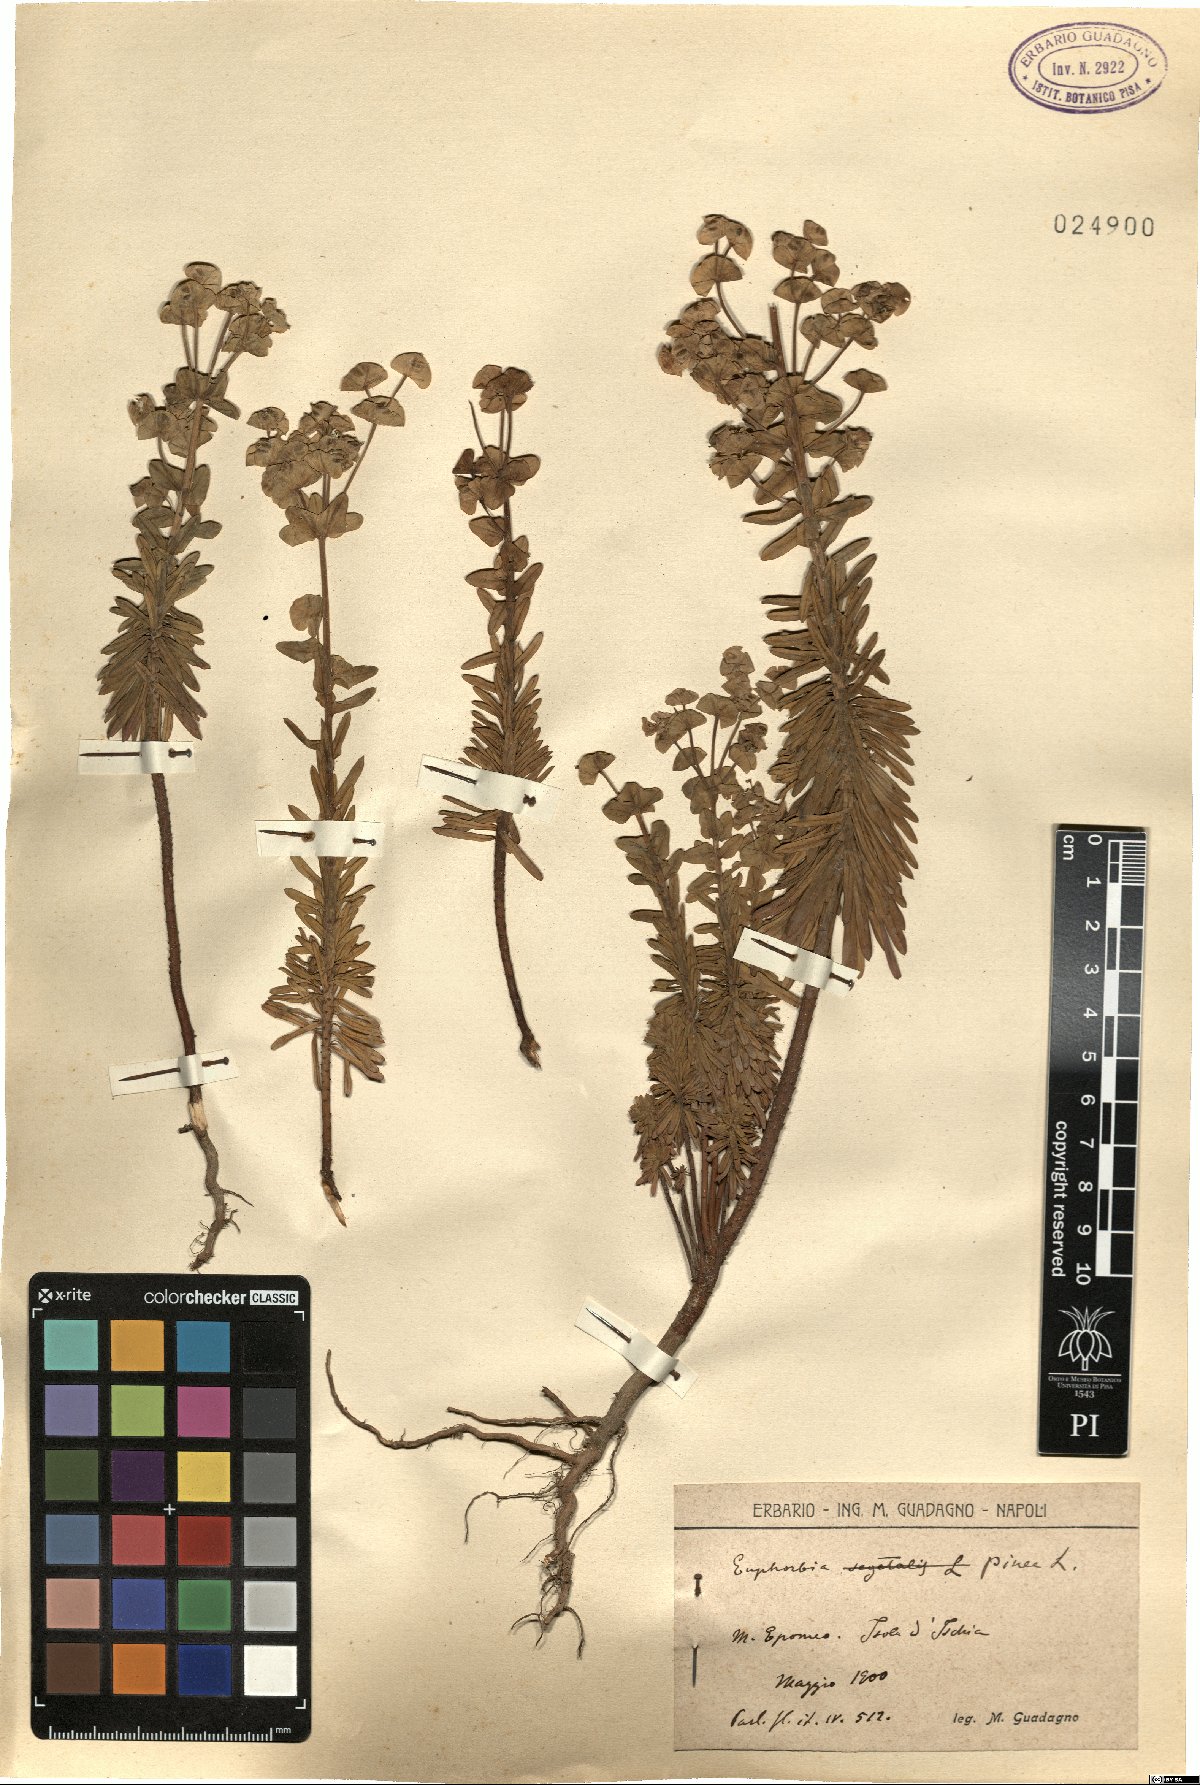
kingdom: Plantae
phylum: Tracheophyta
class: Magnoliopsida
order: Malpighiales
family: Euphorbiaceae
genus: Euphorbia
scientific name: Euphorbia segetalis
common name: Corn spurge
